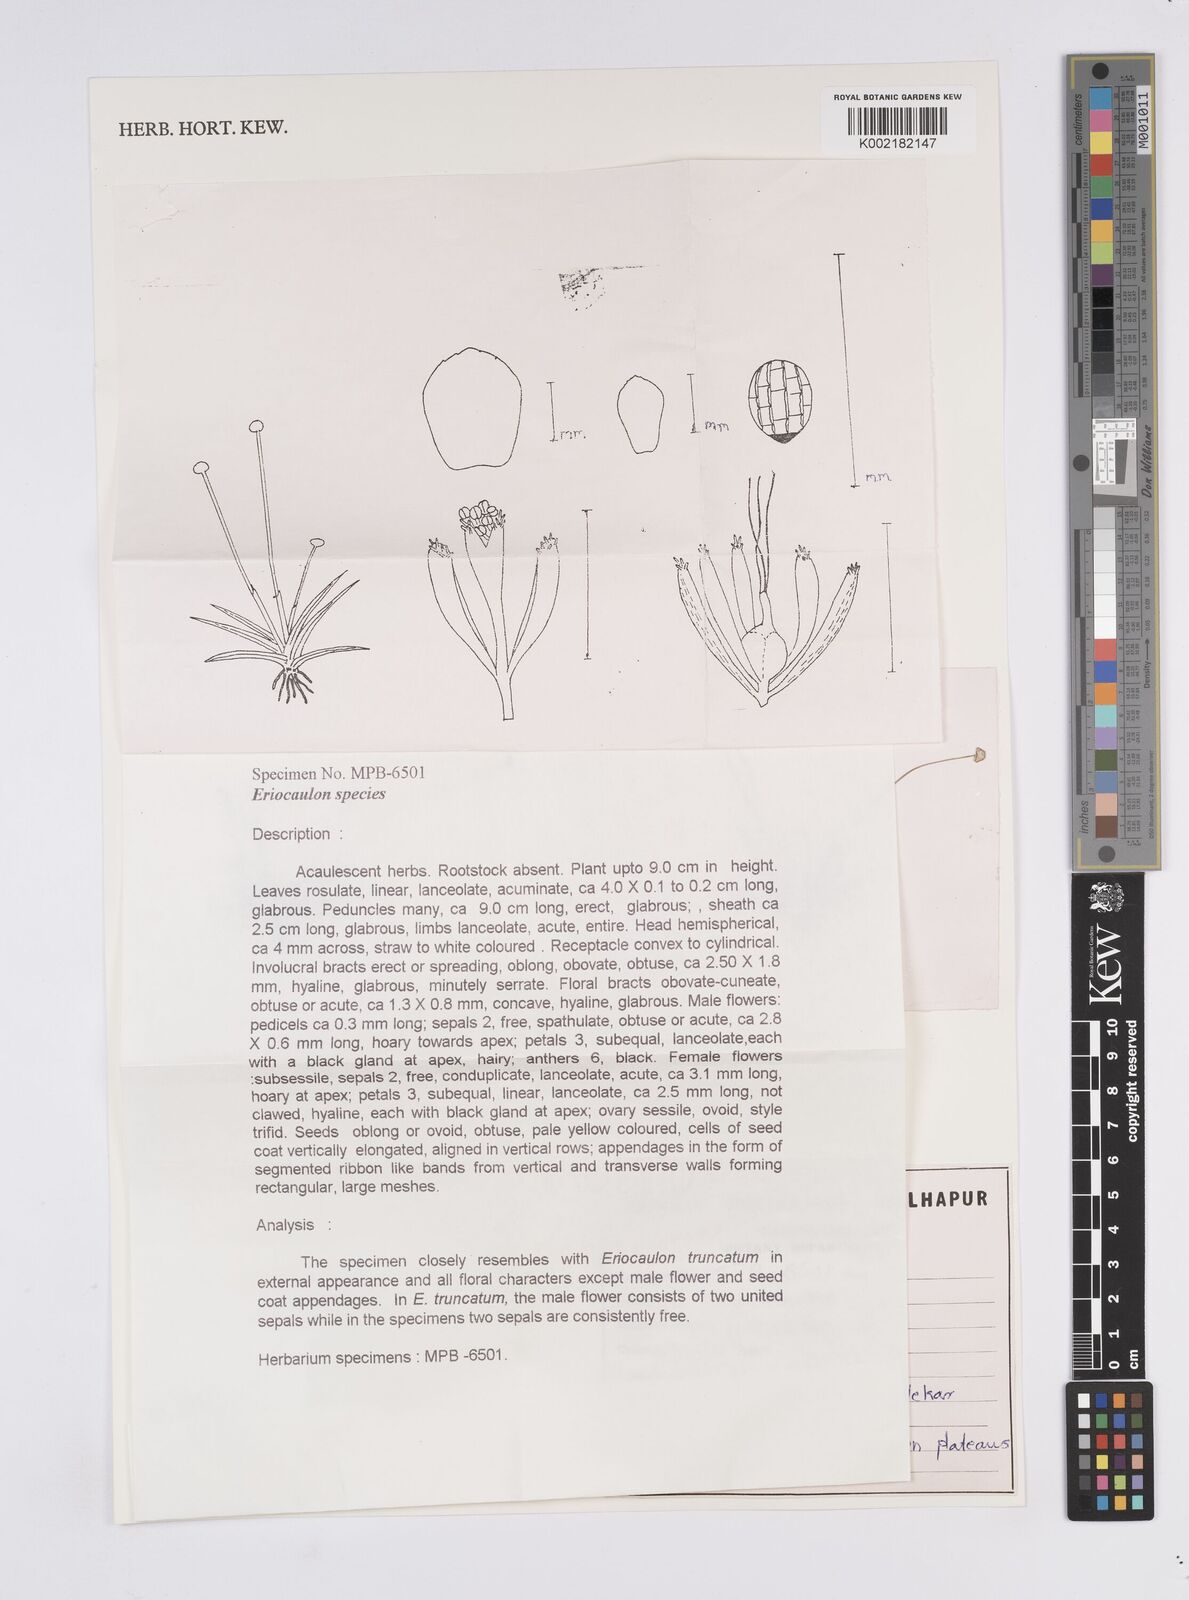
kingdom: Plantae
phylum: Tracheophyta
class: Liliopsida
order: Poales
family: Eriocaulaceae
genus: Eriocaulon
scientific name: Eriocaulon
